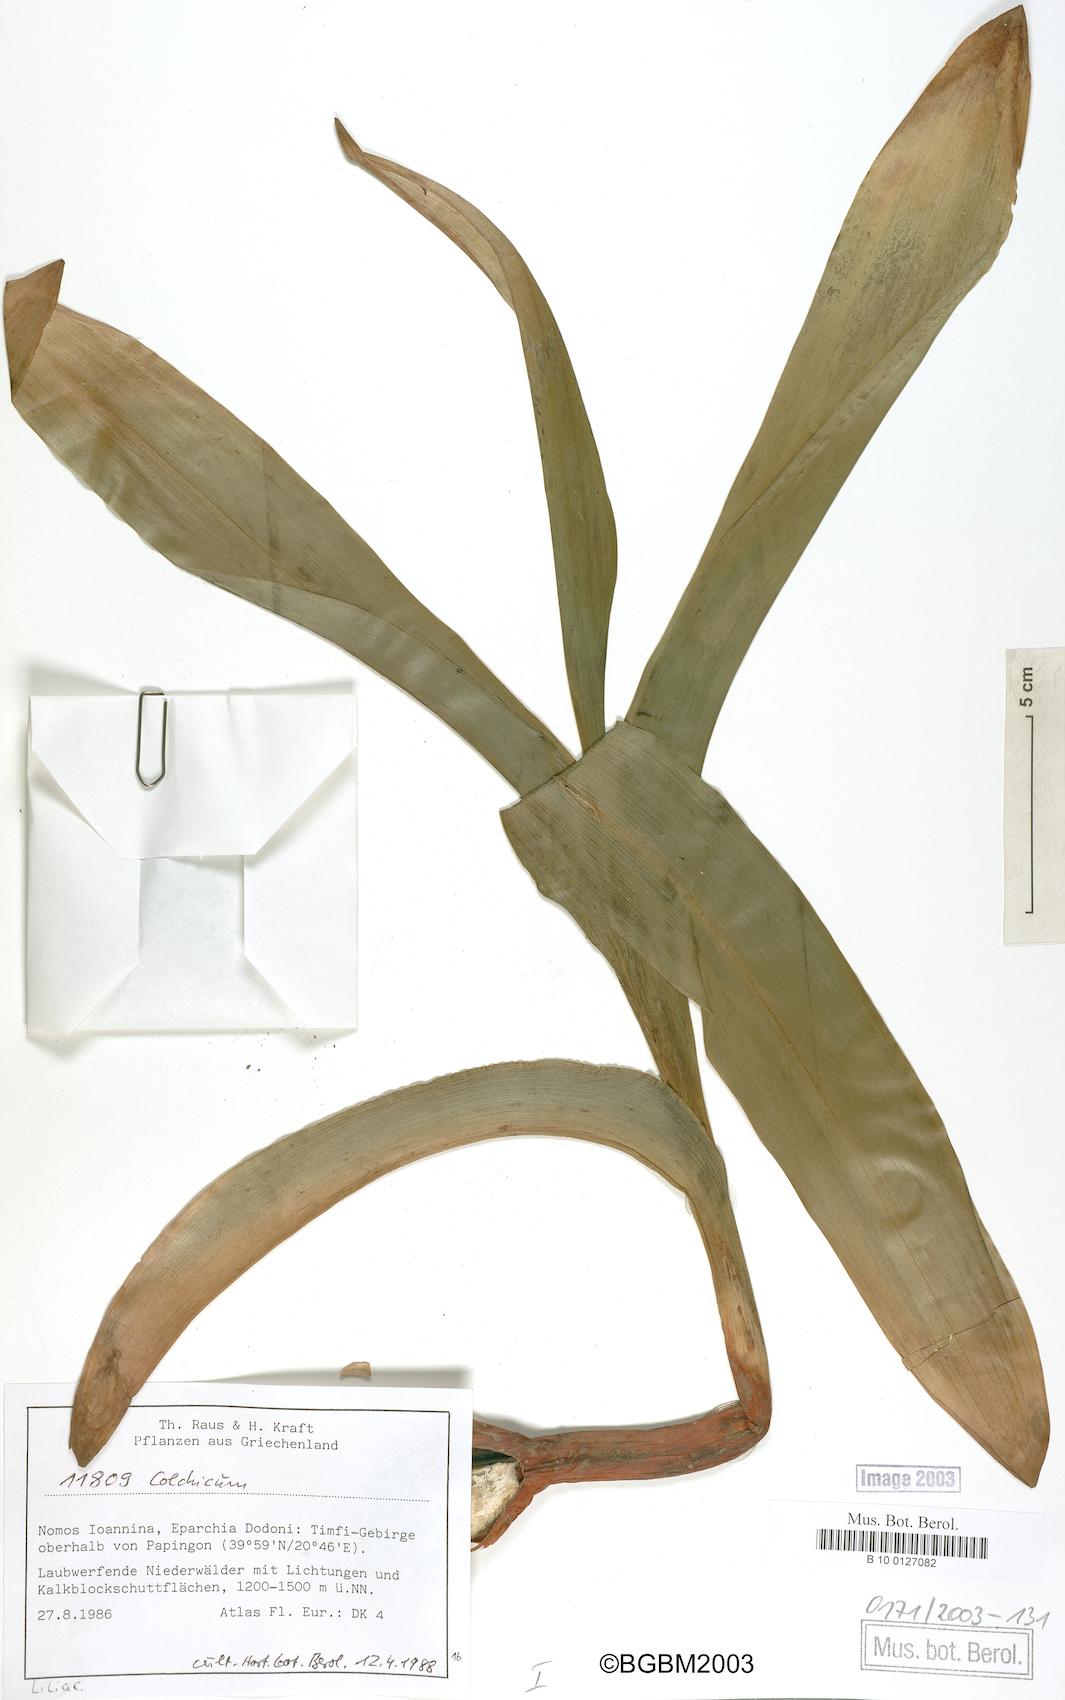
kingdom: Plantae
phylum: Tracheophyta
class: Liliopsida
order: Liliales
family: Colchicaceae
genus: Colchicum
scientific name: Colchicum
